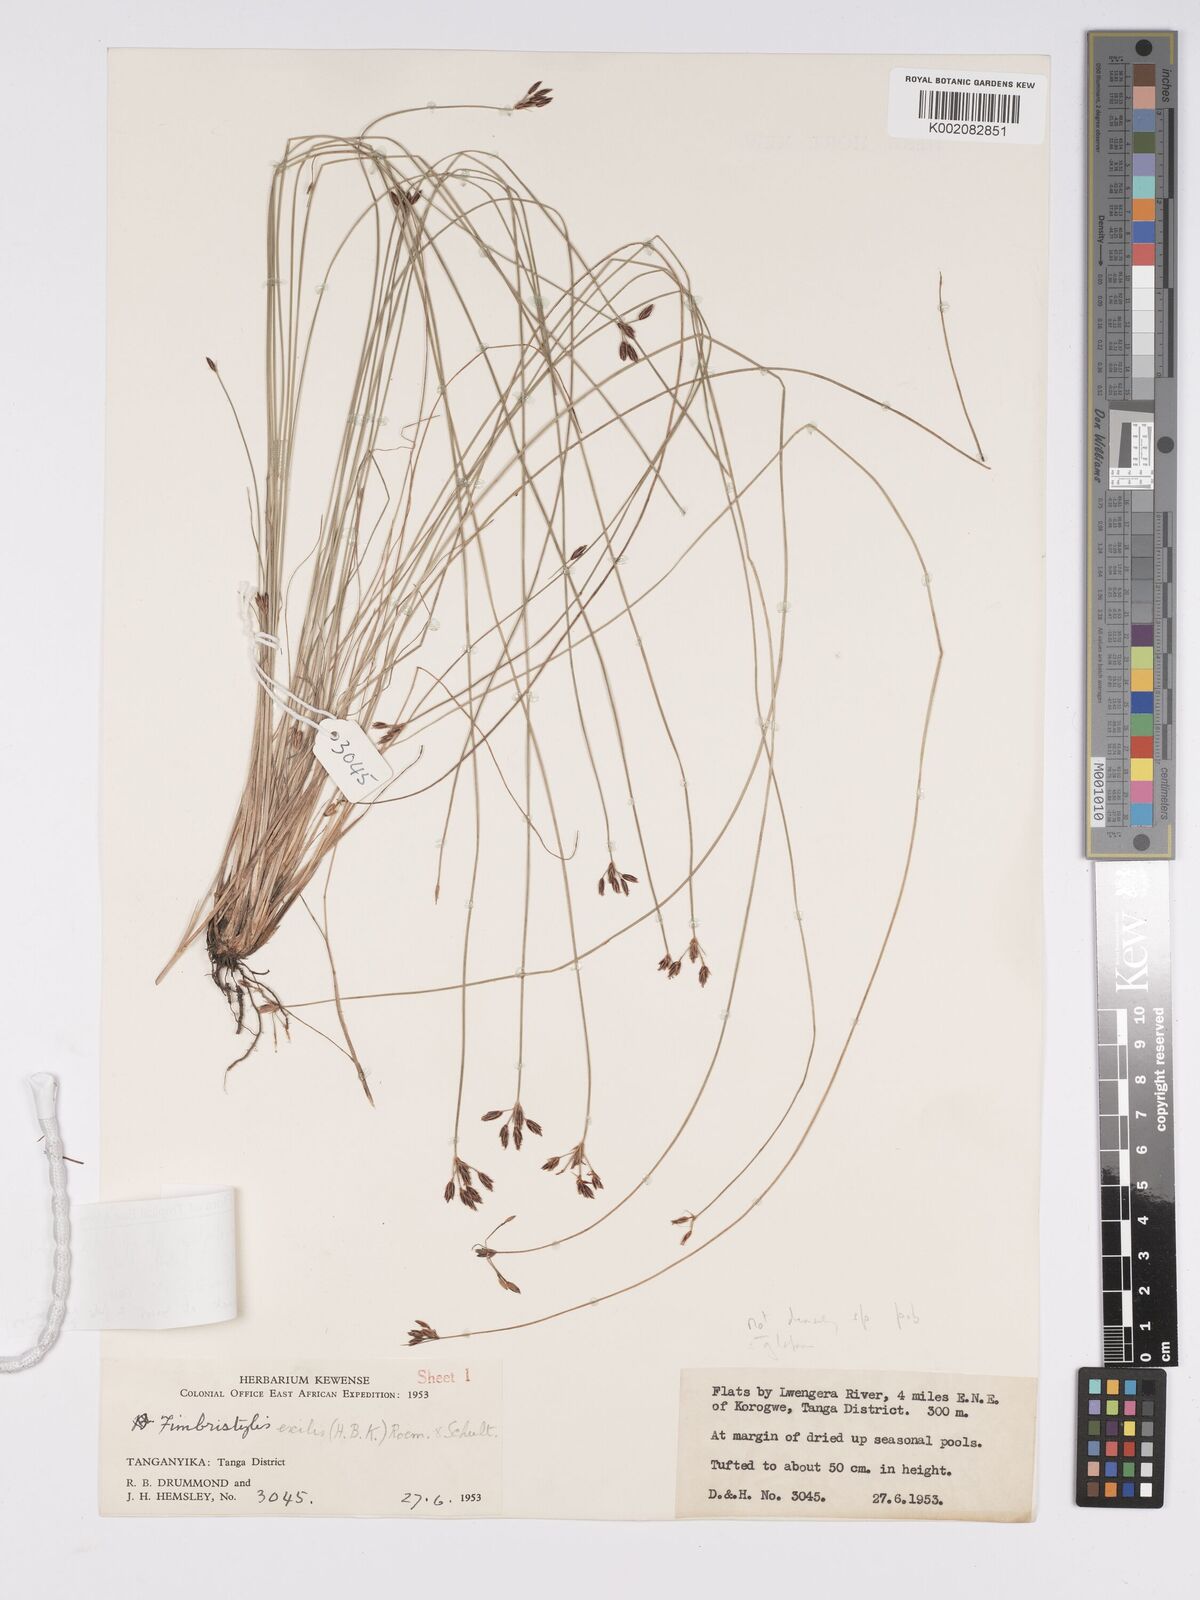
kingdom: Plantae
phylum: Tracheophyta
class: Liliopsida
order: Poales
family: Cyperaceae
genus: Bulbostylis
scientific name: Bulbostylis hispidula
